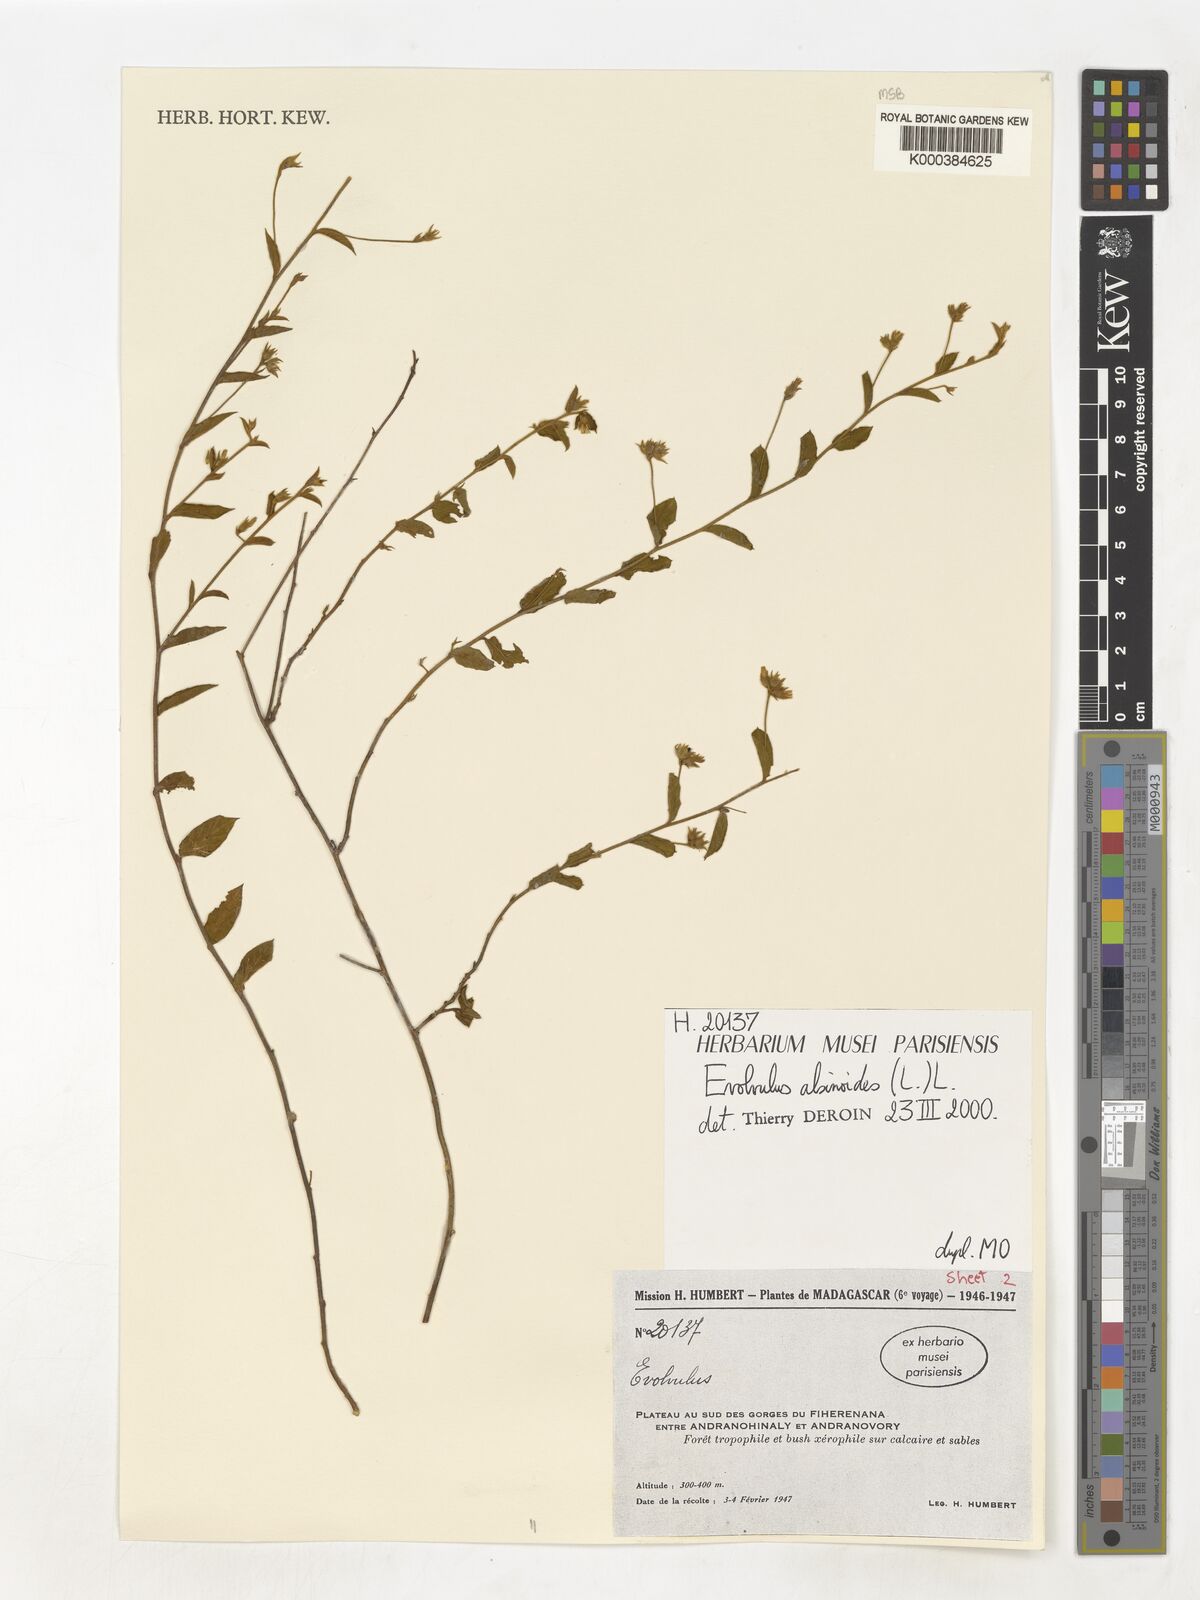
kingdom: Plantae
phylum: Tracheophyta
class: Magnoliopsida
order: Solanales
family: Convolvulaceae
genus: Evolvulus
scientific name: Evolvulus alsinoides
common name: Slender dwarf morning-glory
